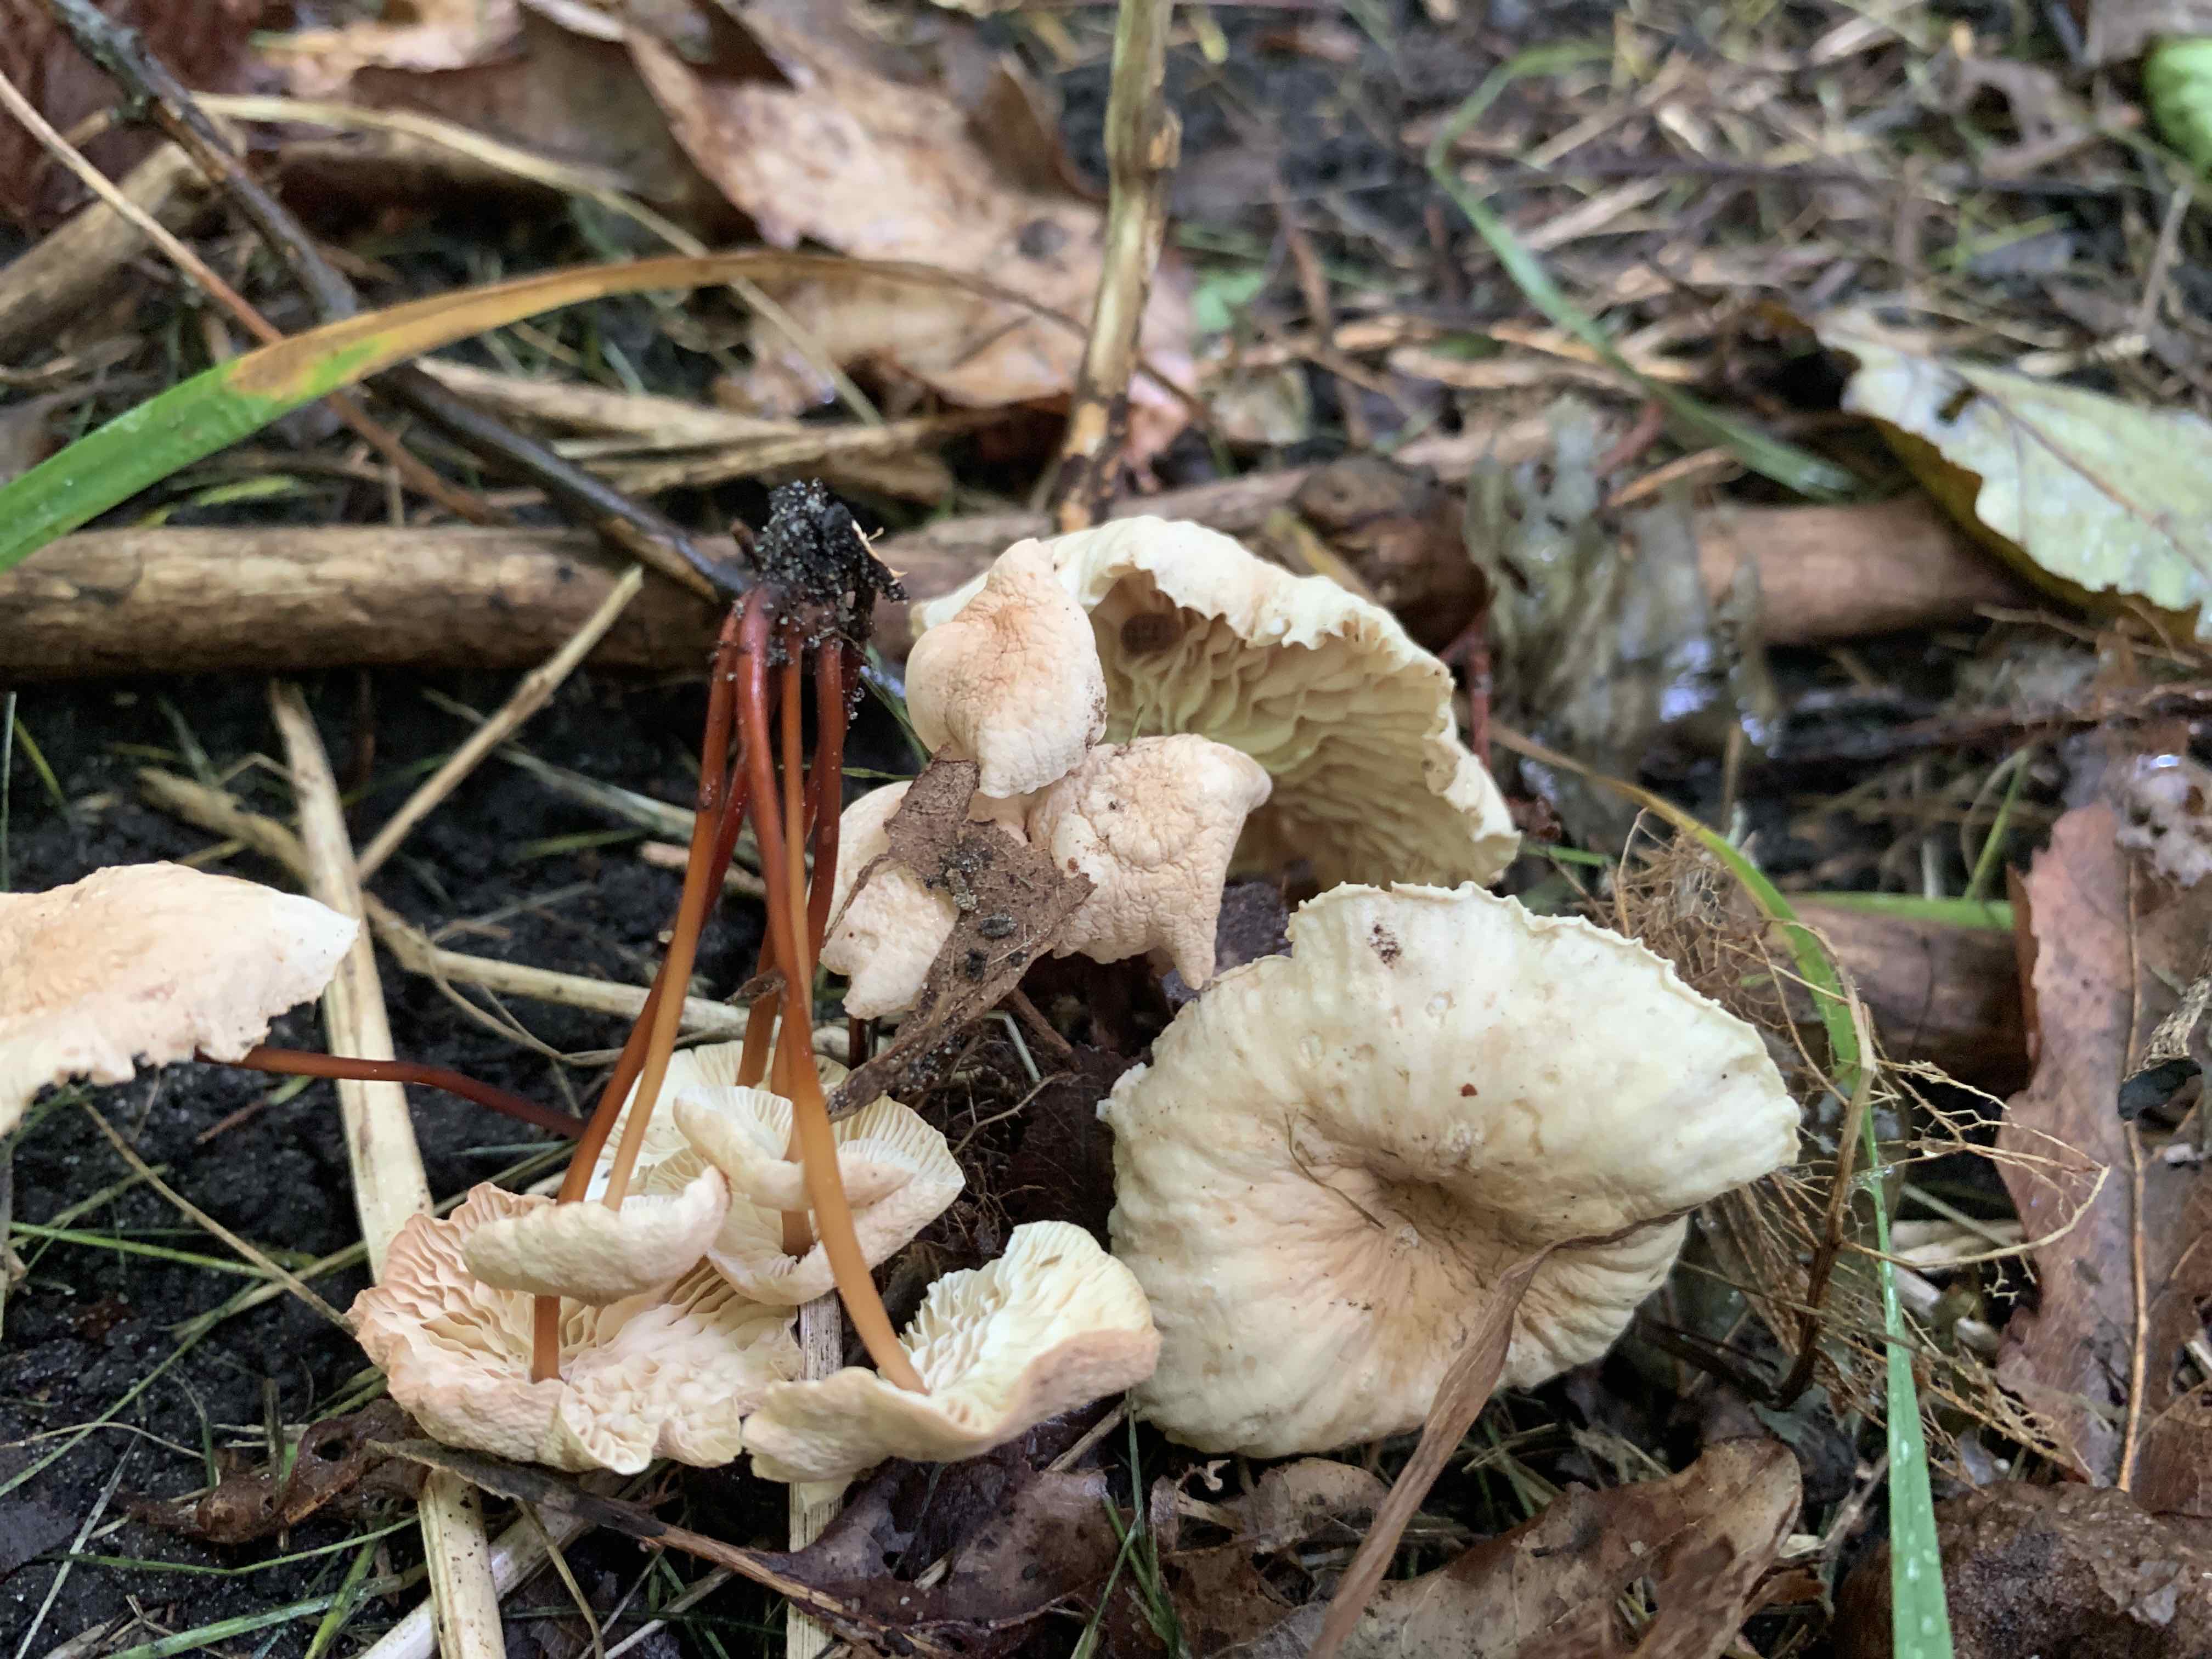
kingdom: Fungi
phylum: Basidiomycota
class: Agaricomycetes
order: Agaricales
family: Omphalotaceae
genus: Mycetinis
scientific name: Mycetinis scorodonius
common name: lille løghat
